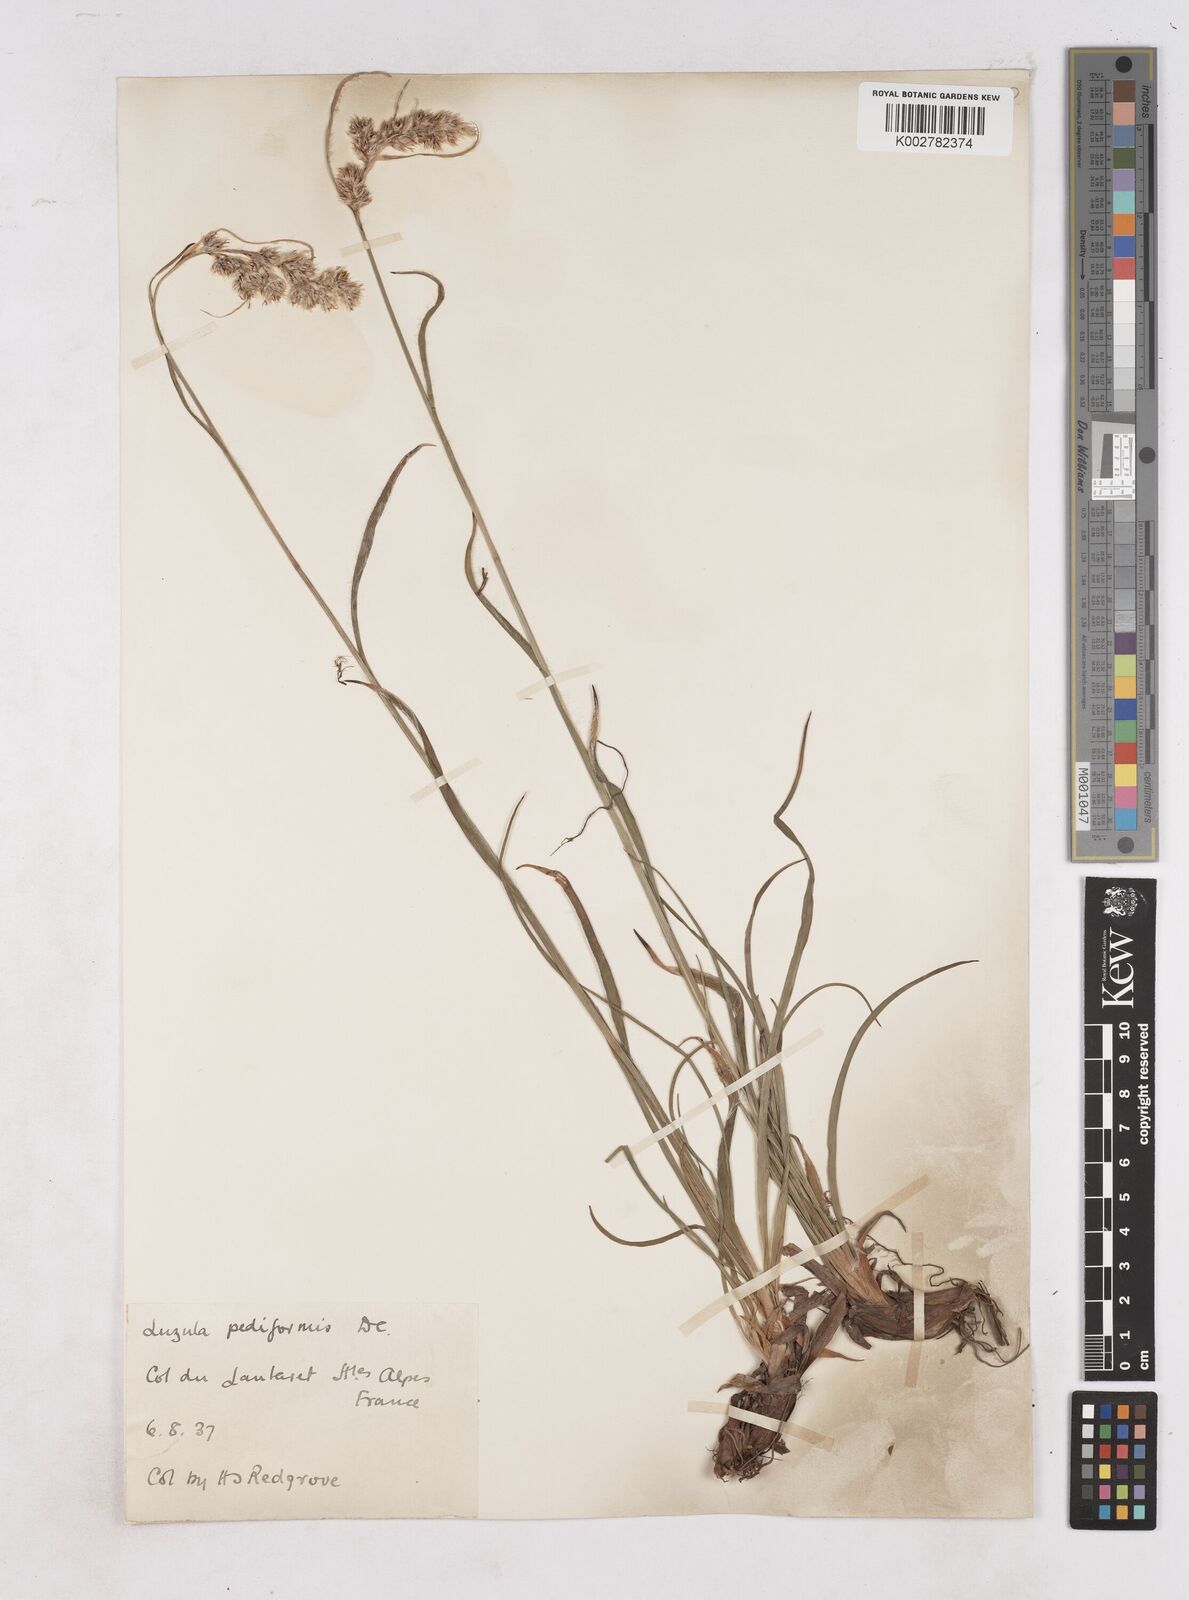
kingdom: Plantae
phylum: Tracheophyta
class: Liliopsida
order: Poales
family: Juncaceae
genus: Luzula
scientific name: Luzula pediformis
